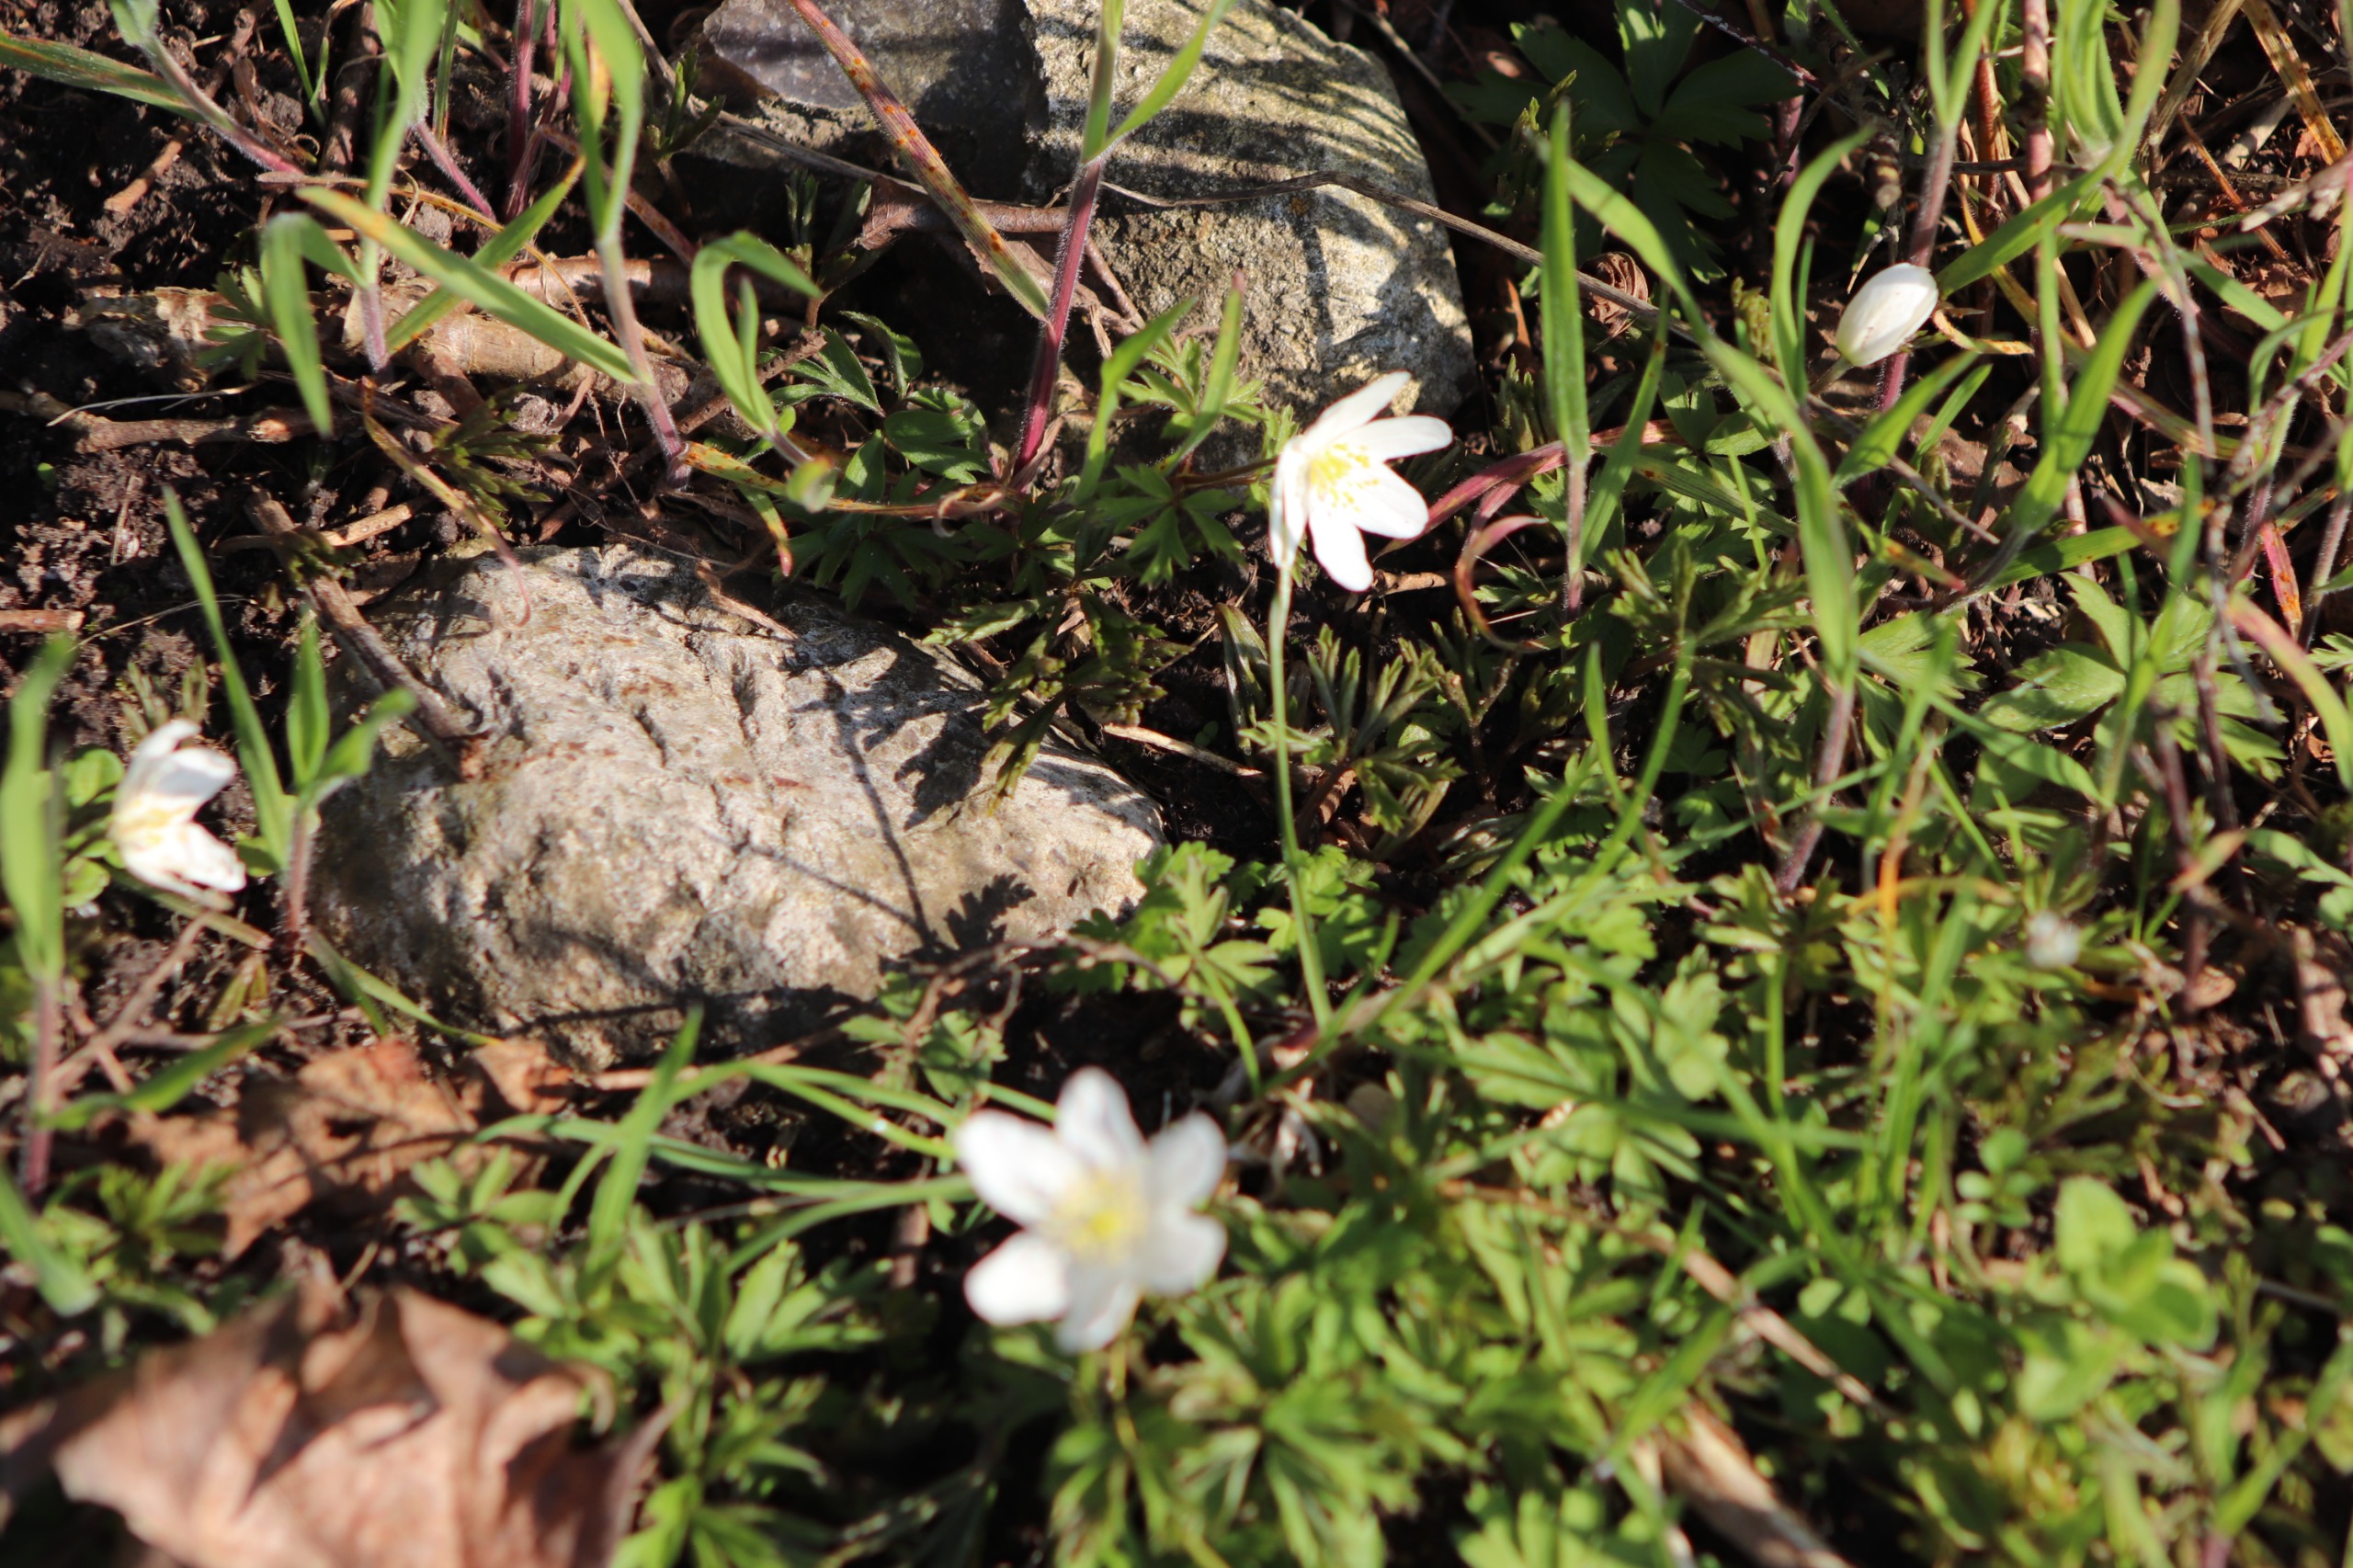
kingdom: Plantae
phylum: Tracheophyta
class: Magnoliopsida
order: Ranunculales
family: Ranunculaceae
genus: Anemone
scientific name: Anemone nemorosa
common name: Hvid anemone
